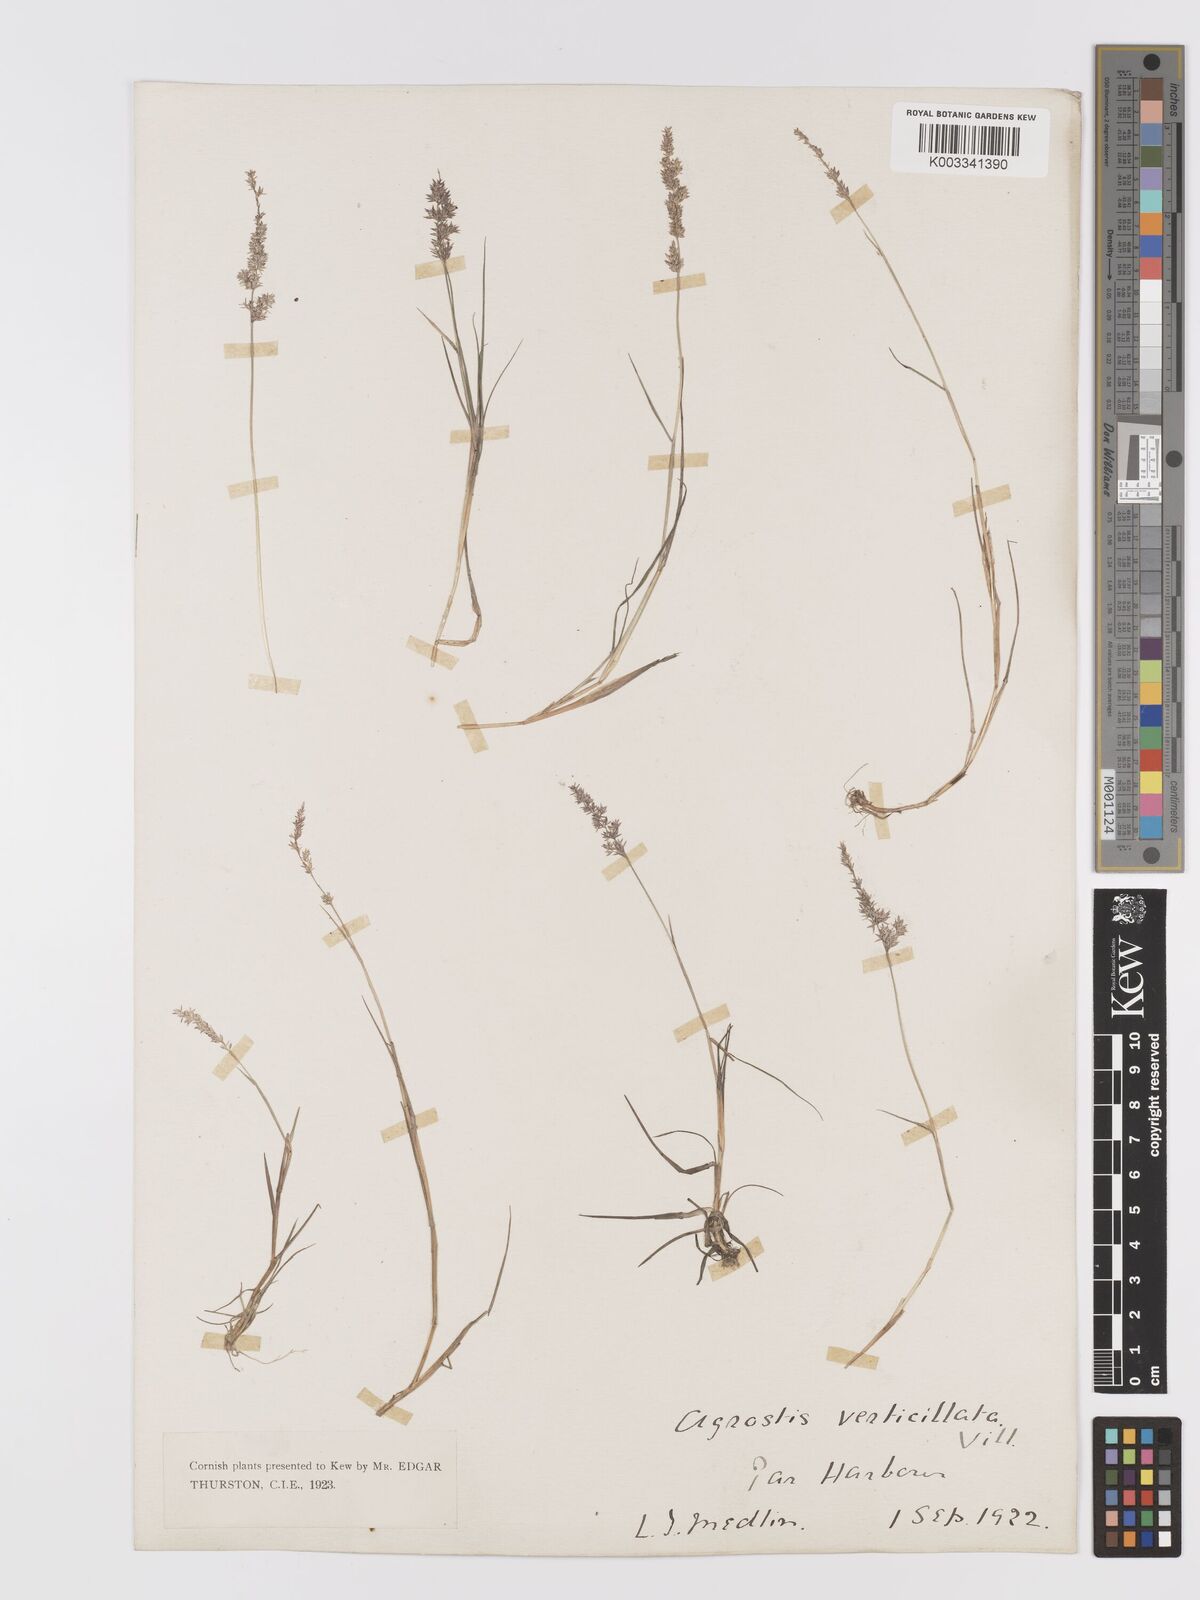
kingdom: Plantae
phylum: Tracheophyta
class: Liliopsida
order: Poales
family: Poaceae
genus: Agrostis
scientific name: Agrostis stolonifera
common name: Creeping bentgrass
